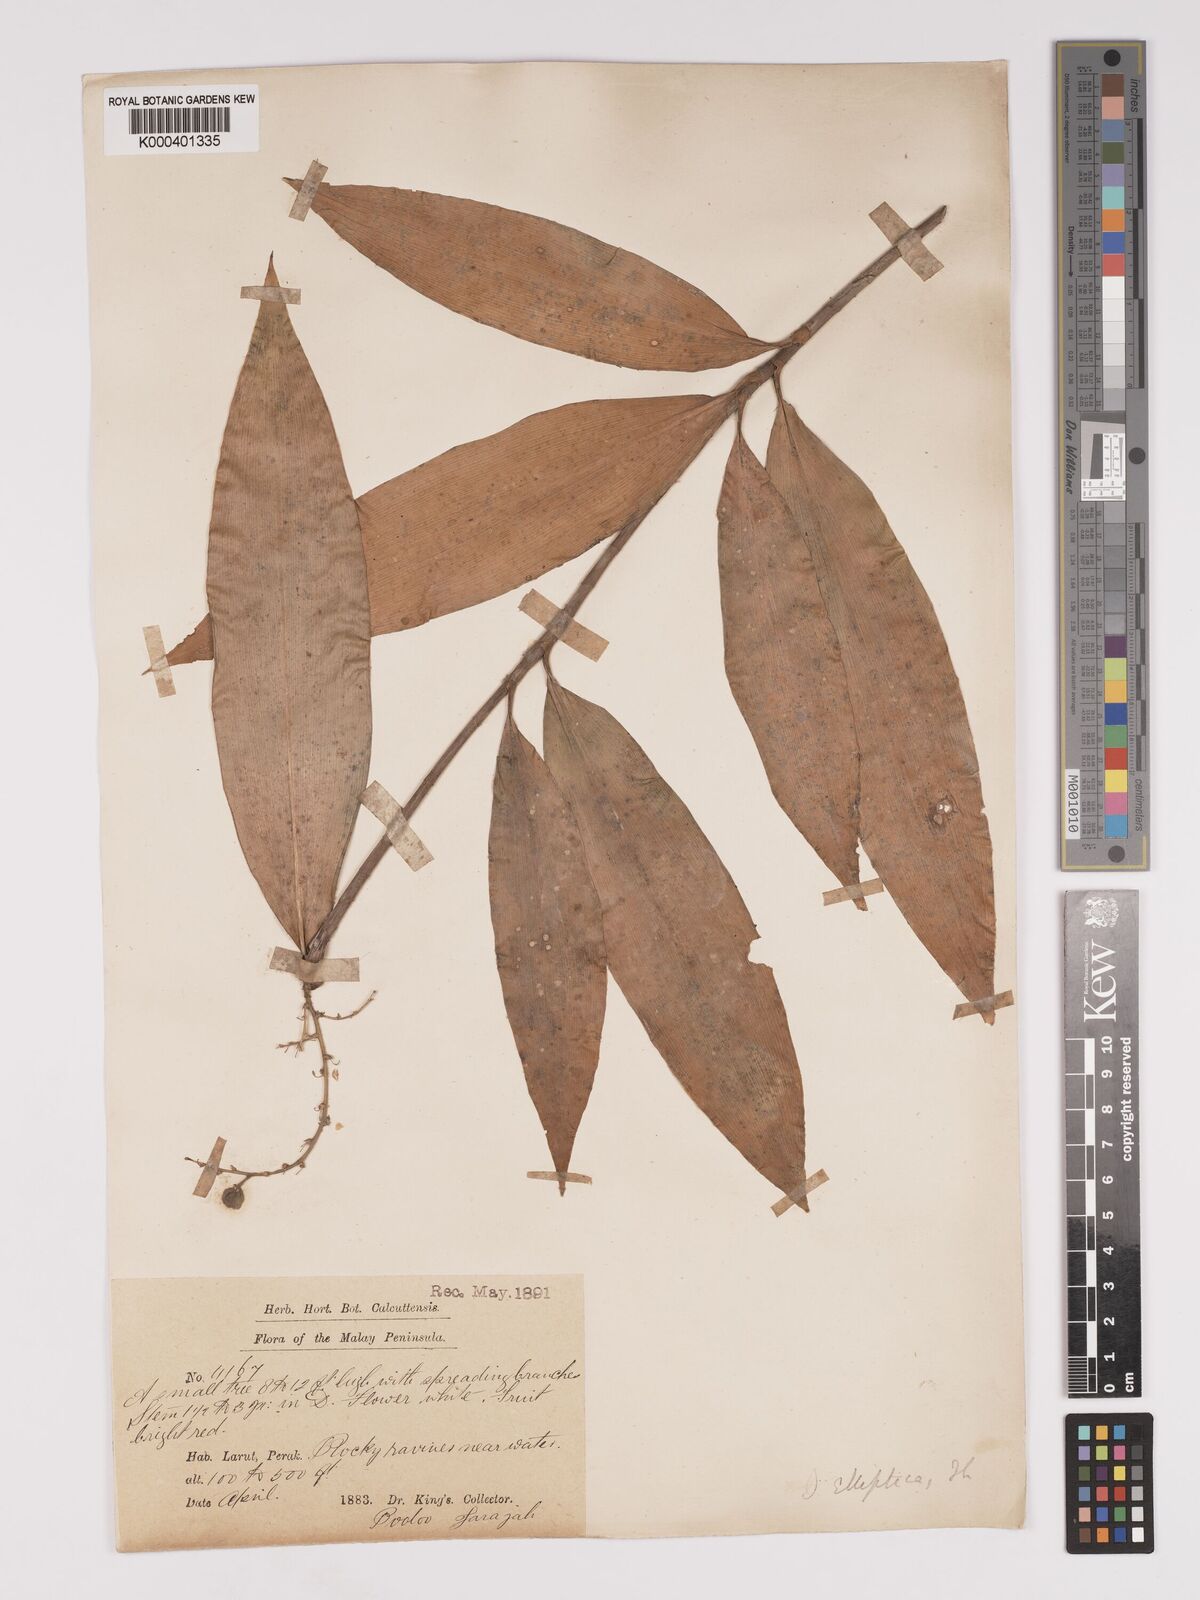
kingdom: Plantae
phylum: Tracheophyta
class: Liliopsida
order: Asparagales
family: Asparagaceae
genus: Dracaena
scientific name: Dracaena elliptica
